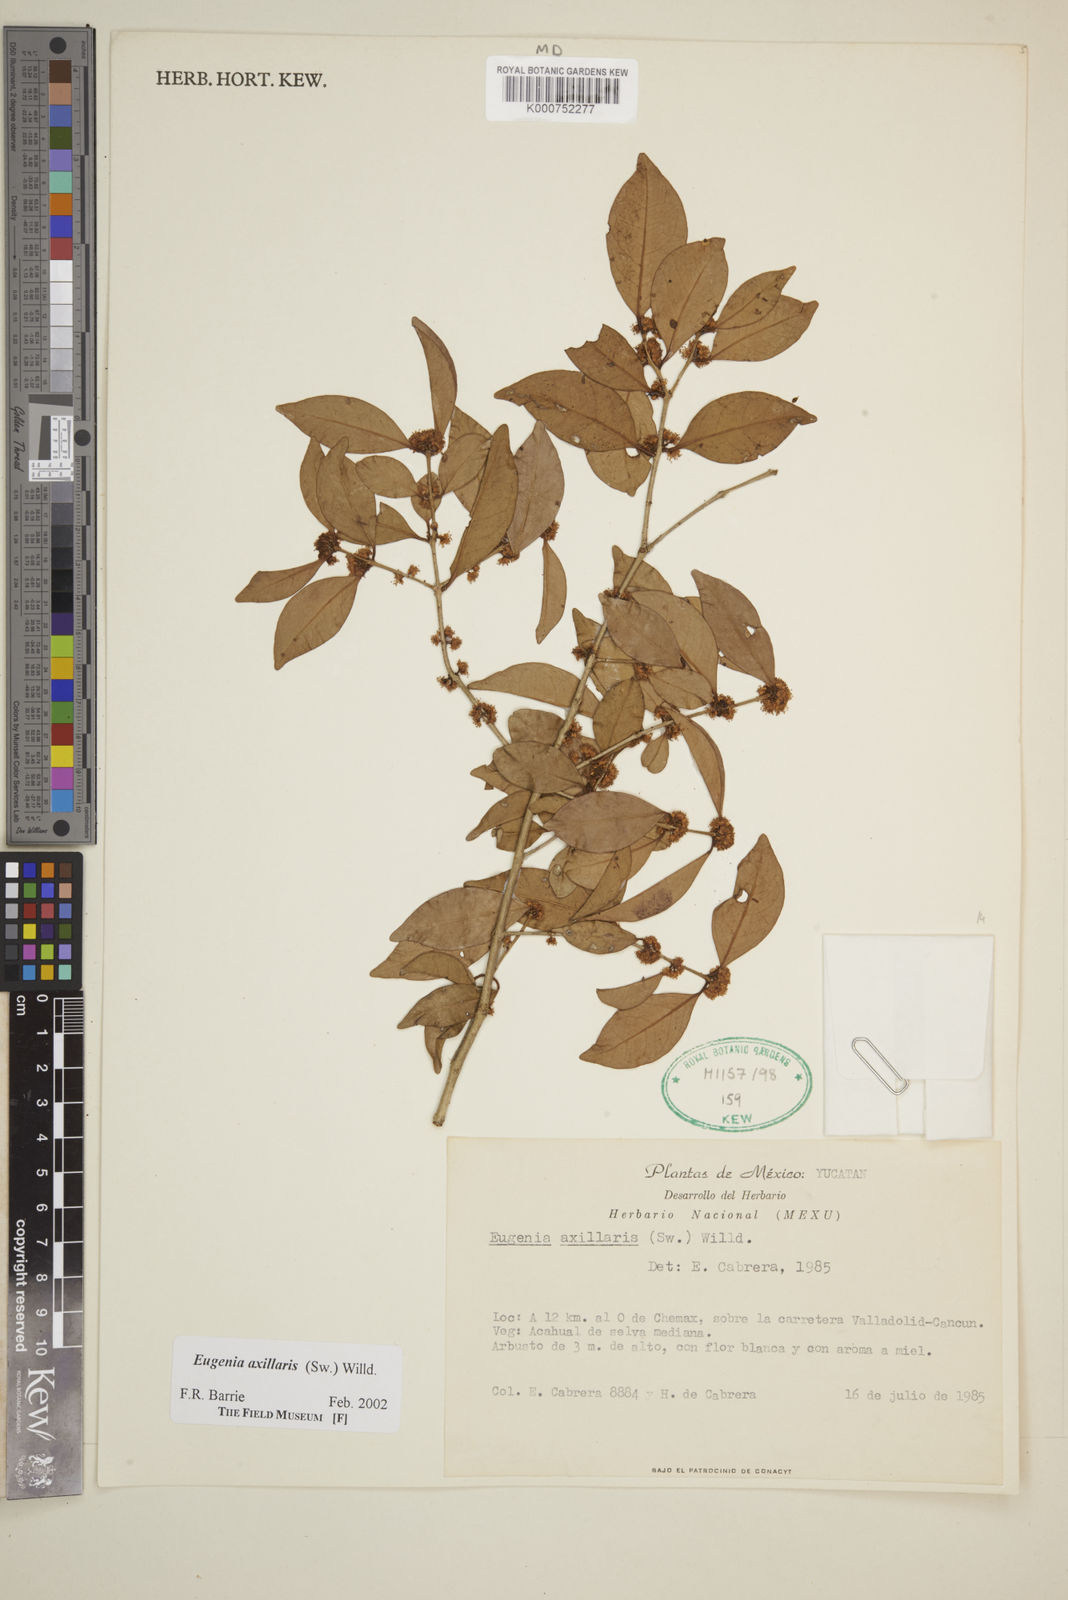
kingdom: Plantae
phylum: Tracheophyta
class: Magnoliopsida
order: Myrtales
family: Myrtaceae
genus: Eugenia
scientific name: Eugenia axillaris
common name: Choaky berry
